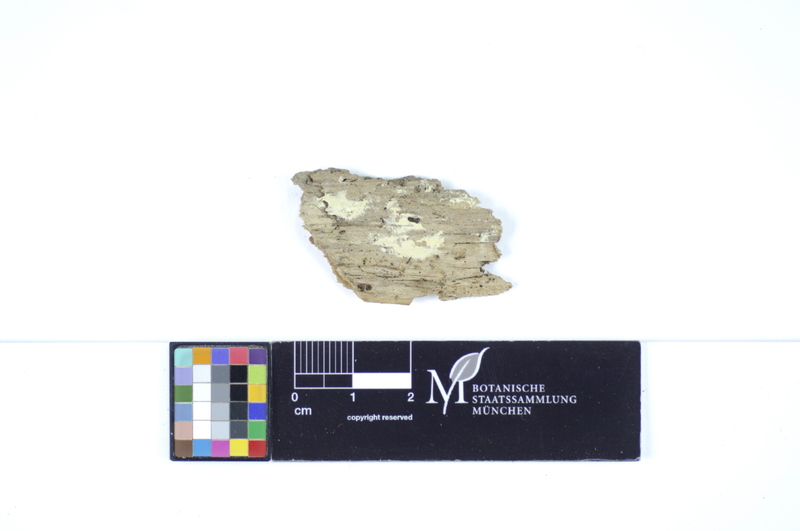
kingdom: Fungi
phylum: Basidiomycota
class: Agaricomycetes
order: Polyporales
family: Meruliaceae
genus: Conohypha
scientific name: Conohypha terricola
